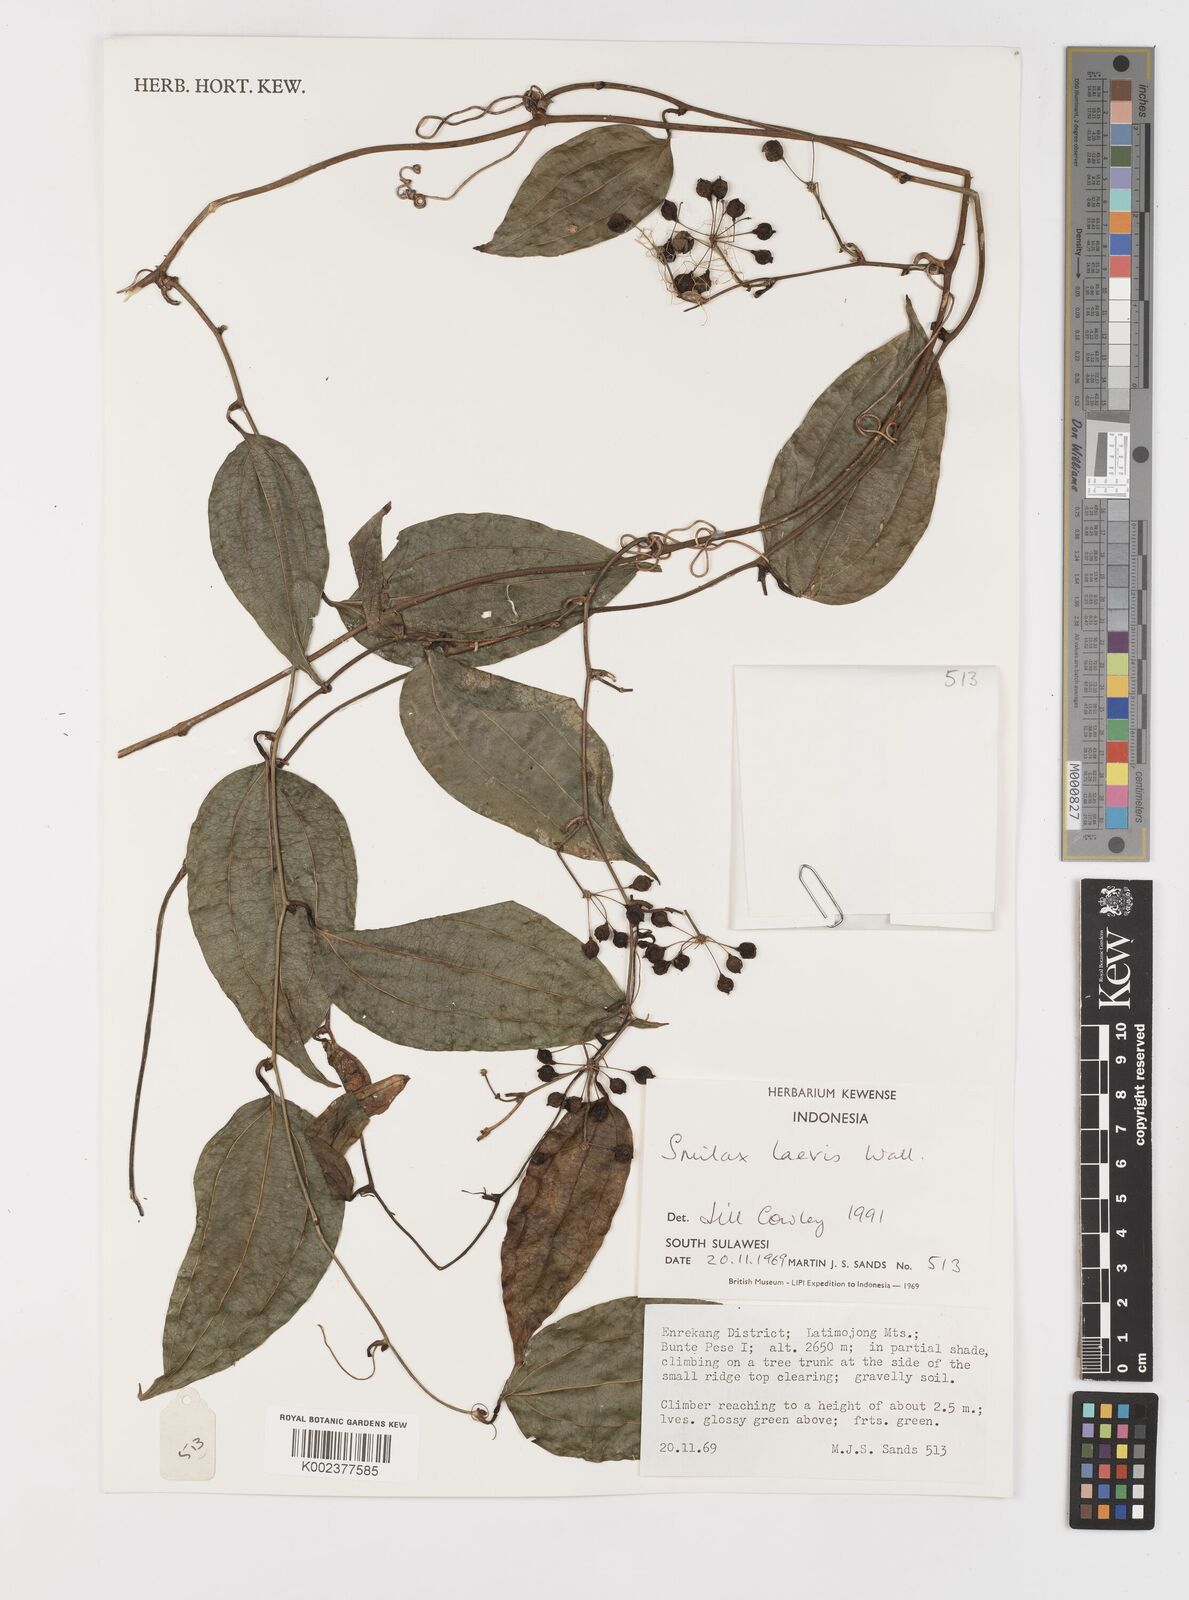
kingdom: Plantae
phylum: Tracheophyta
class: Liliopsida
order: Liliales
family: Smilacaceae
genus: Smilax
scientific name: Smilax laevis
